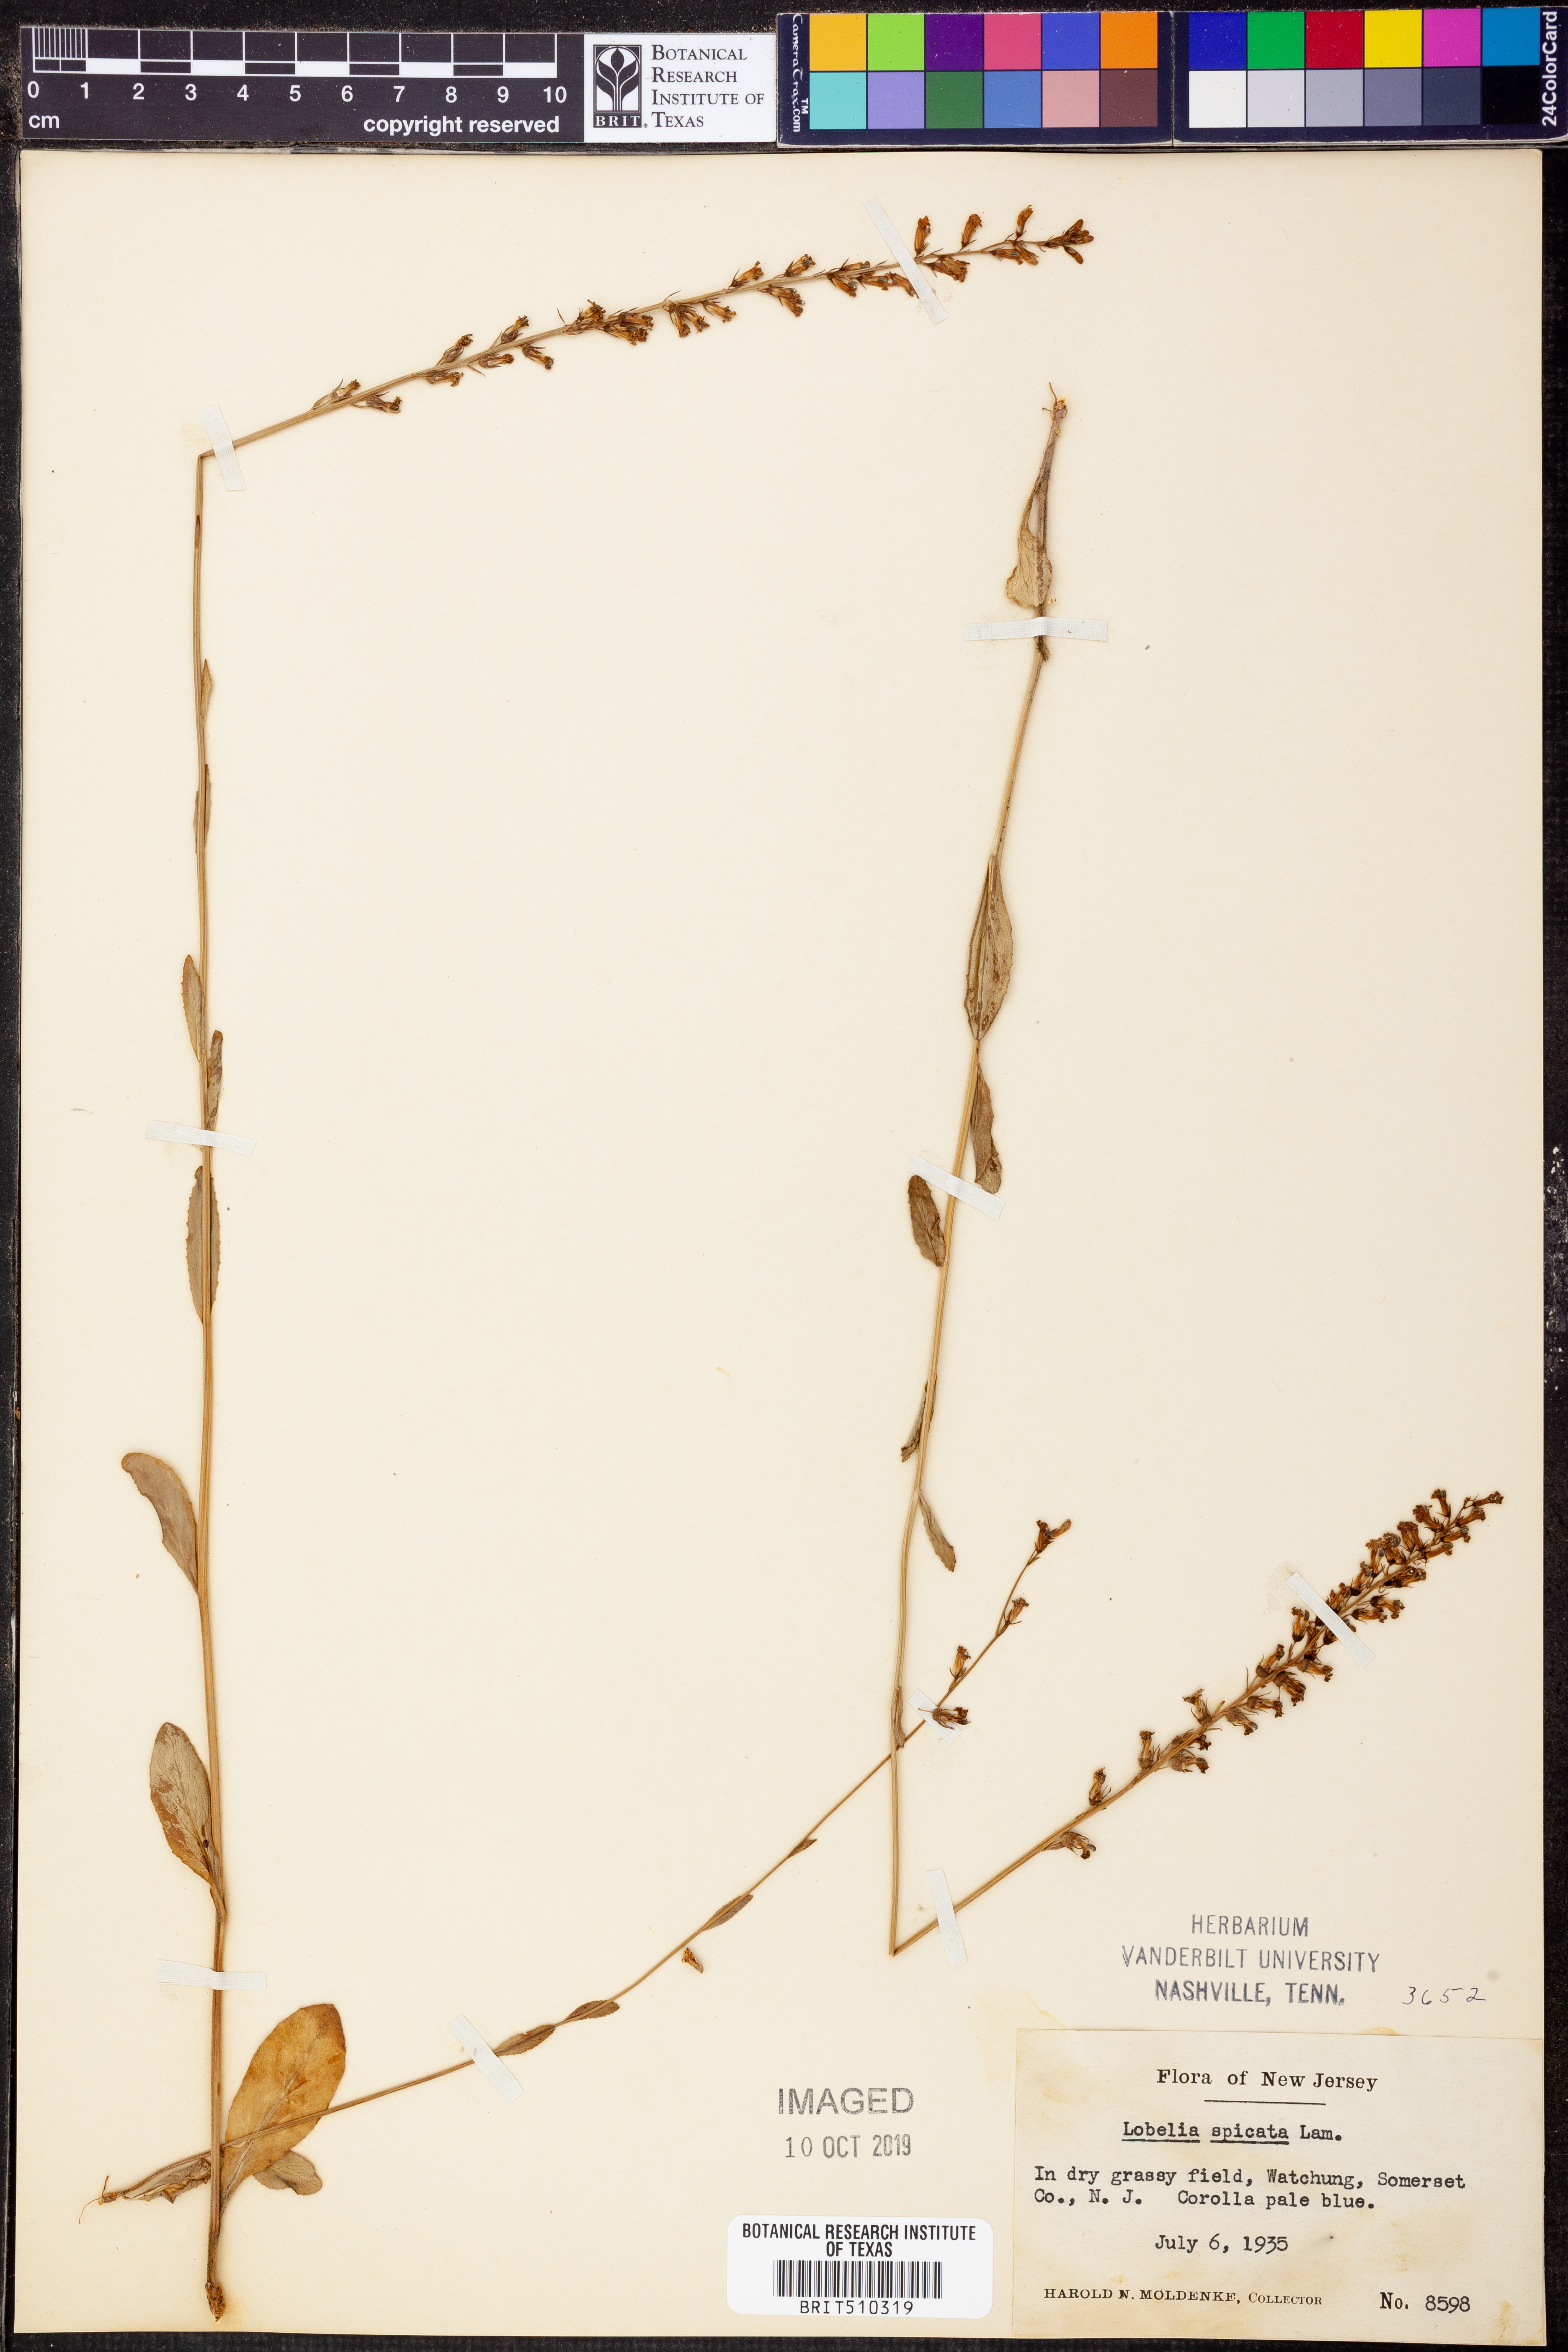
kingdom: Plantae
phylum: Tracheophyta
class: Magnoliopsida
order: Asterales
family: Campanulaceae
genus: Lobelia
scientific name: Lobelia spicata
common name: Pale-spike lobelia
